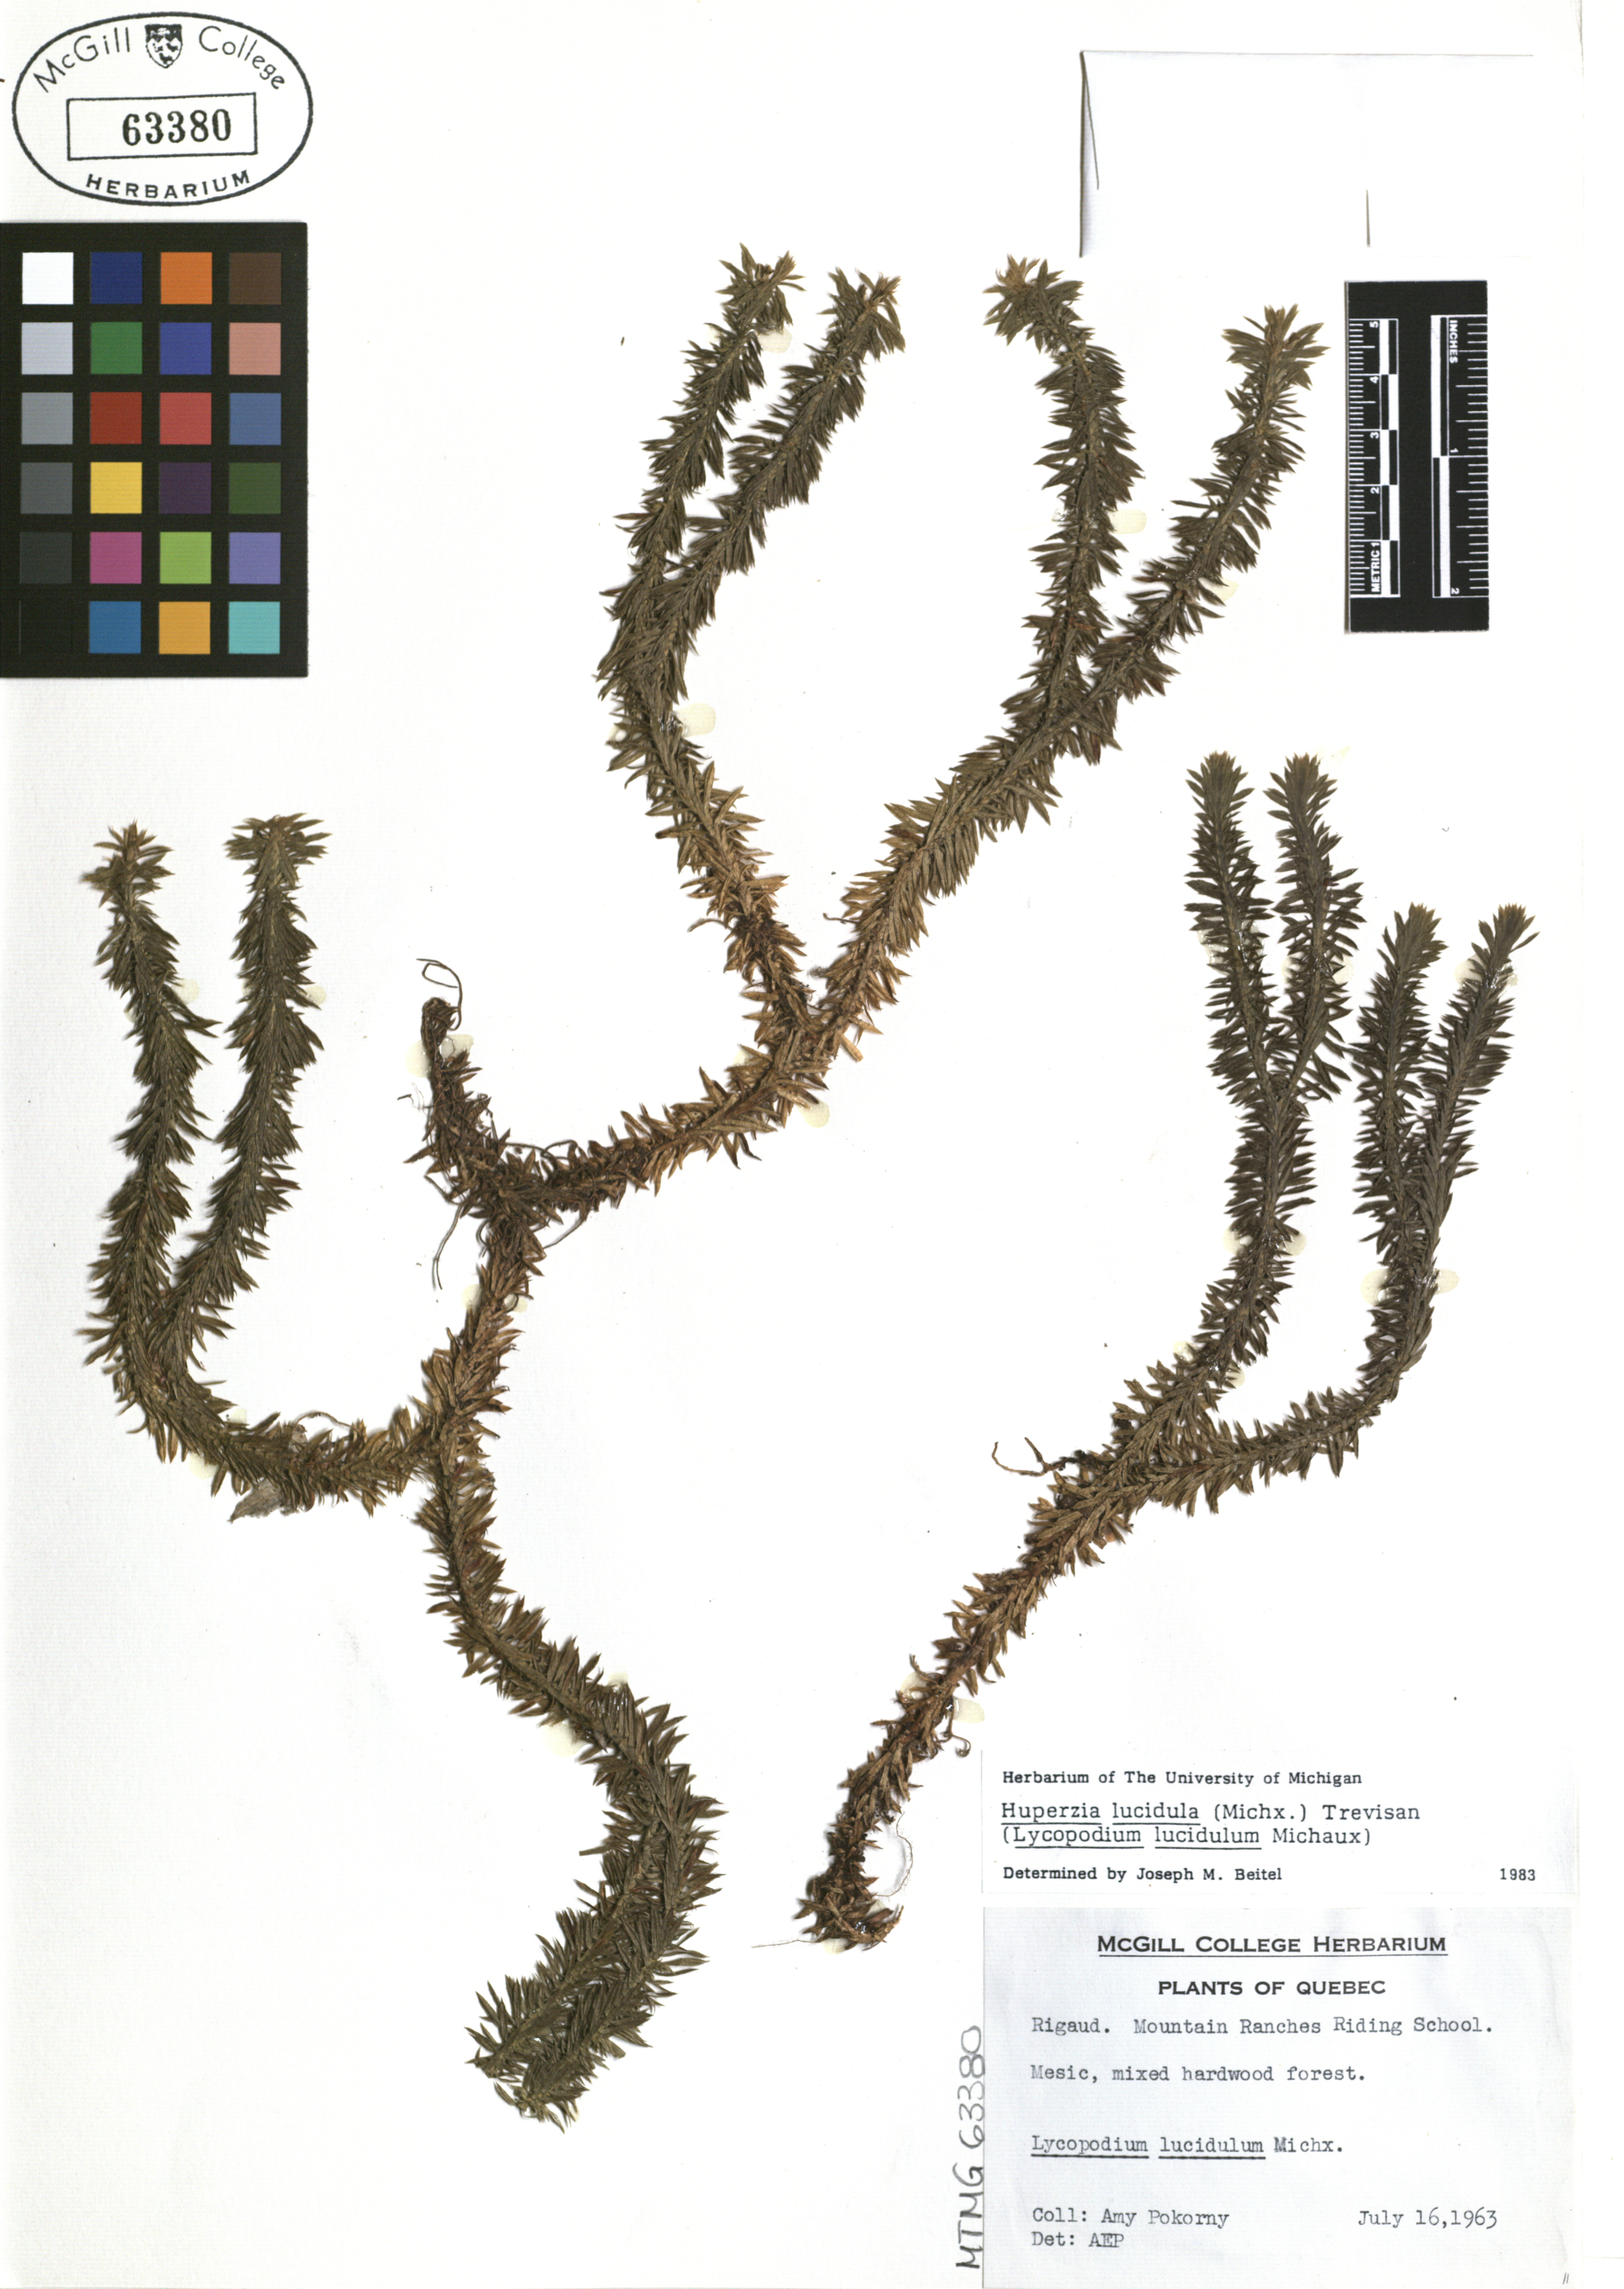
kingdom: Plantae
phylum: Tracheophyta
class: Lycopodiopsida
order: Lycopodiales
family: Lycopodiaceae
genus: Huperzia
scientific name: Huperzia lucidula
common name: Shining clubmoss
